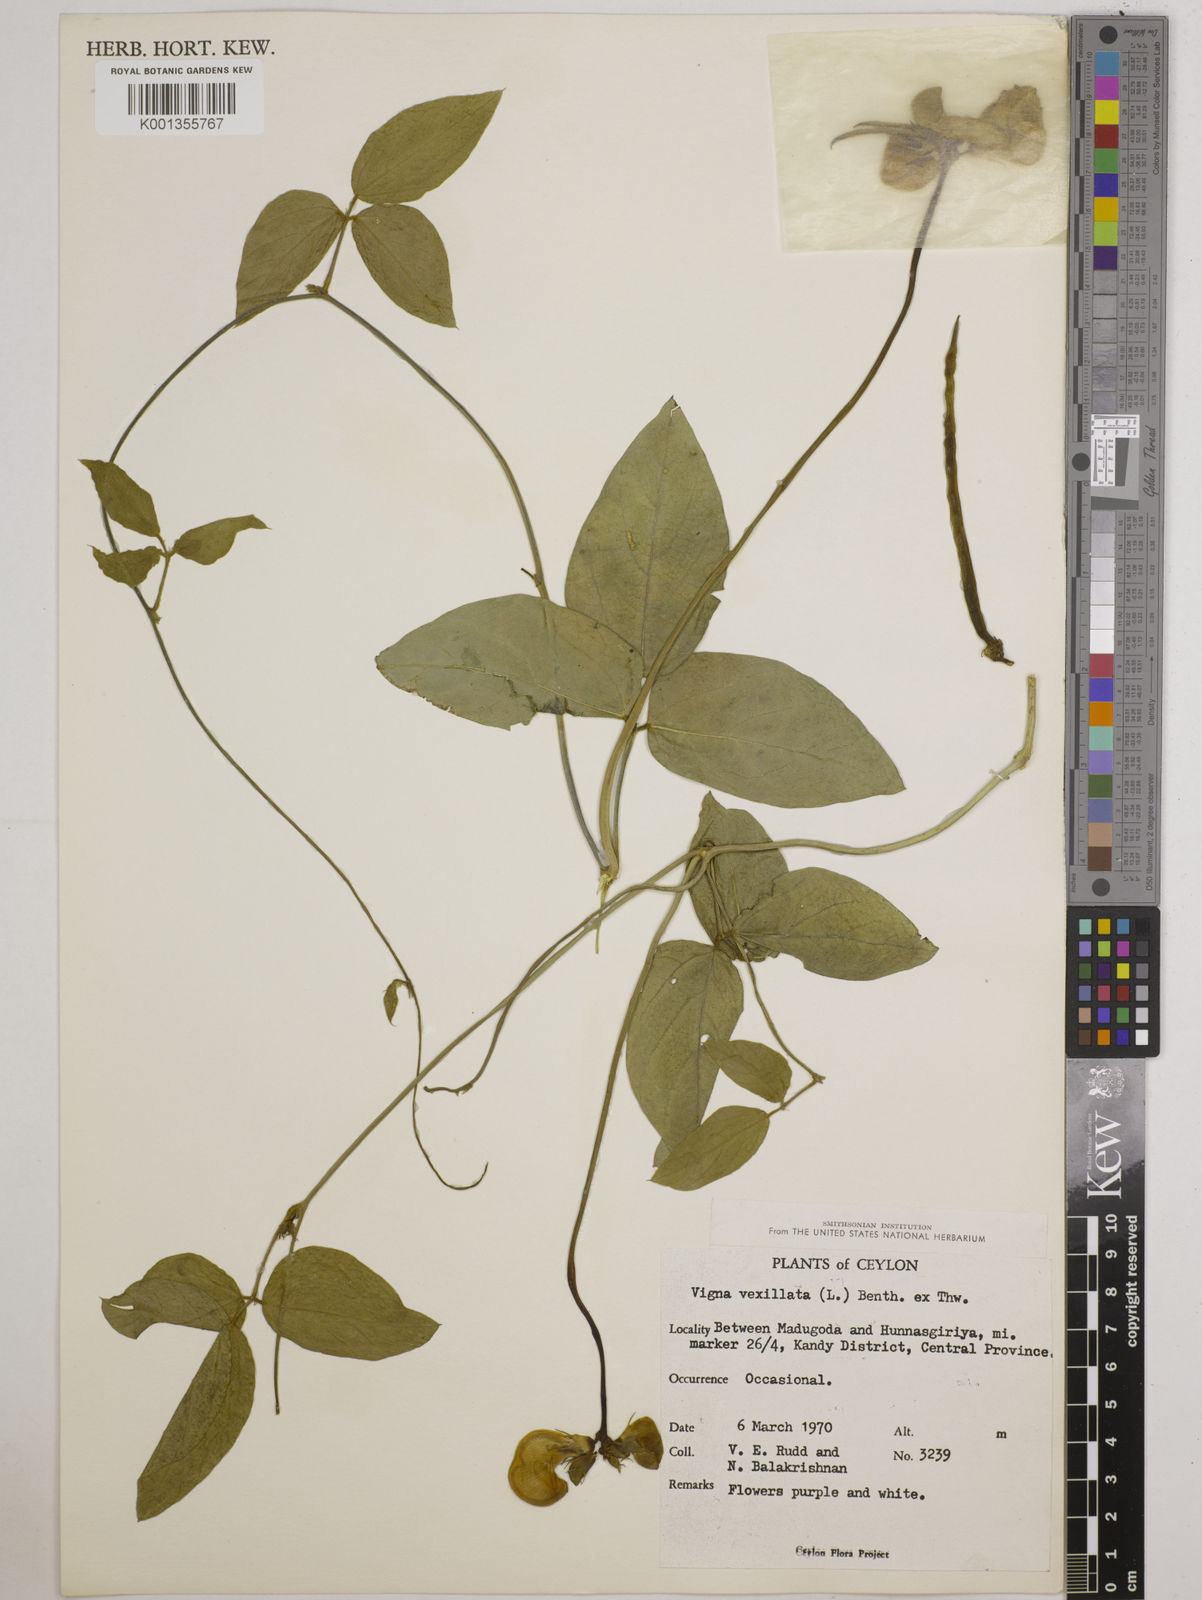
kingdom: Plantae
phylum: Tracheophyta
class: Magnoliopsida
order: Fabales
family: Fabaceae
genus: Vigna
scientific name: Vigna vexillata
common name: Zombi pea
